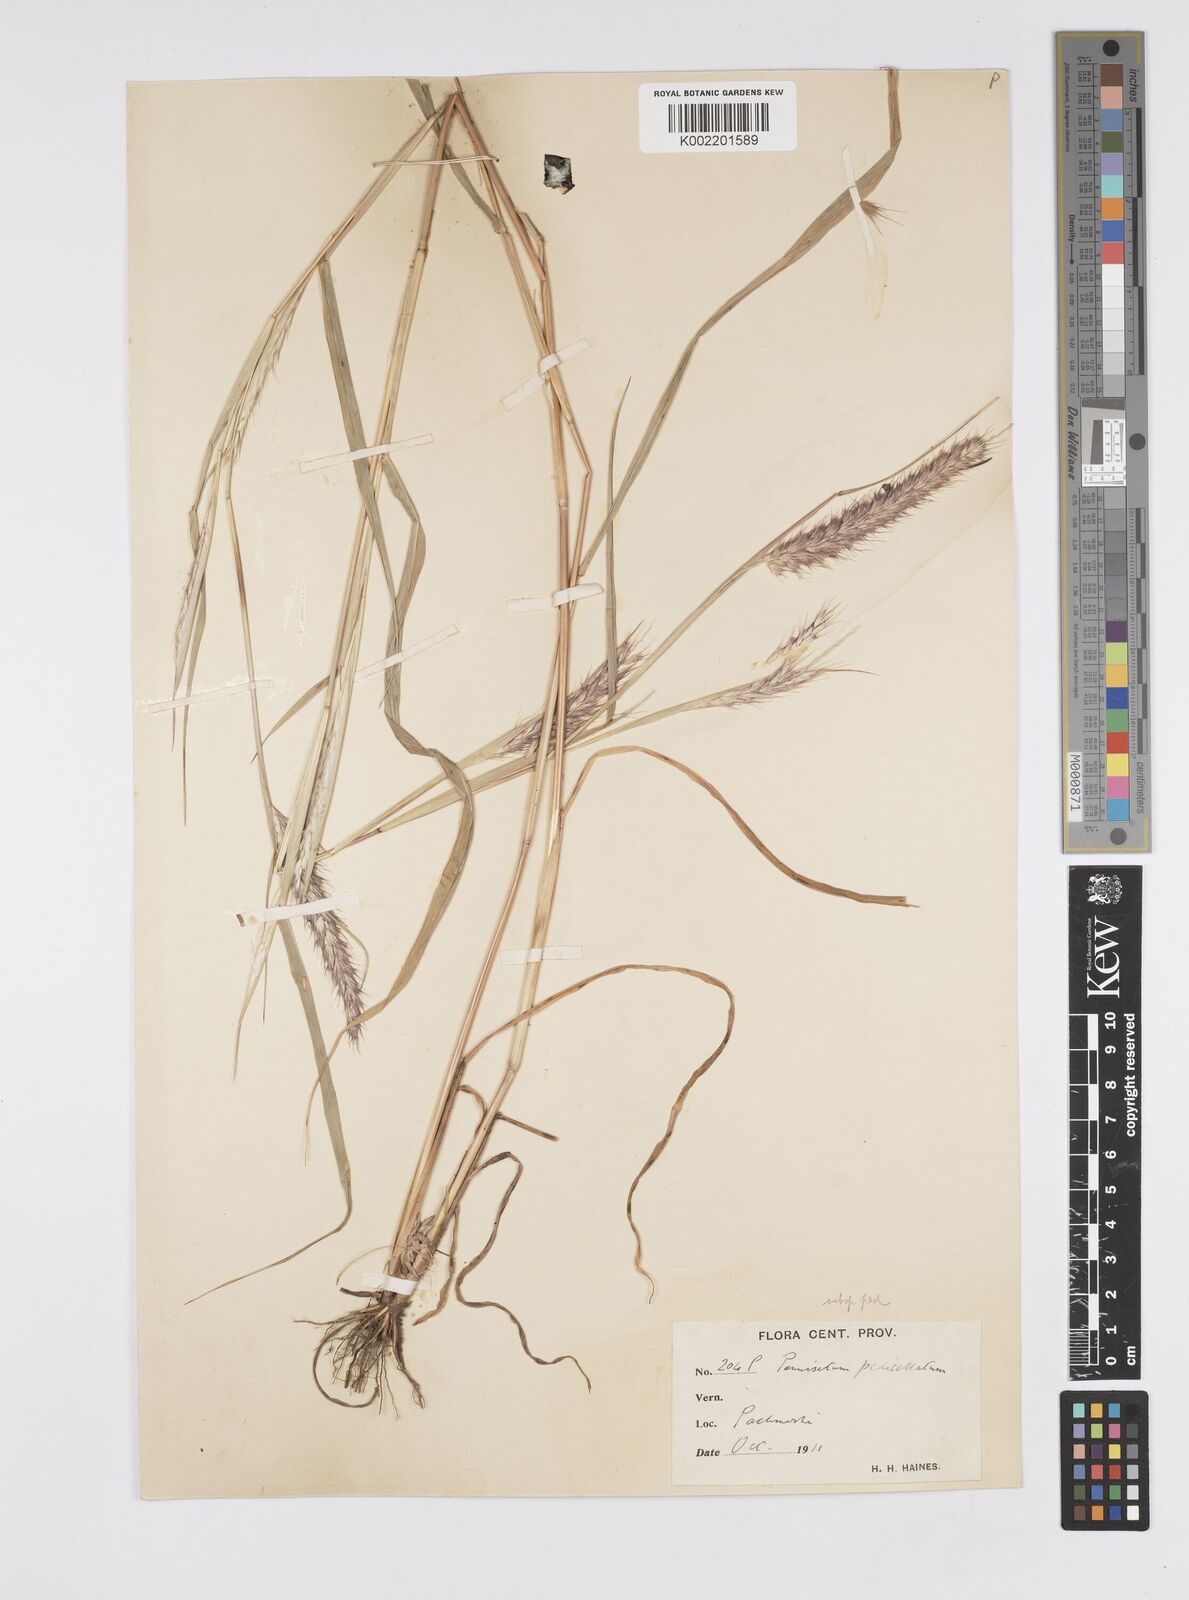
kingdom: Plantae
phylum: Tracheophyta
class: Liliopsida
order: Poales
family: Poaceae
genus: Cenchrus
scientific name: Cenchrus pedicellatus
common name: Hairy fountain grass
